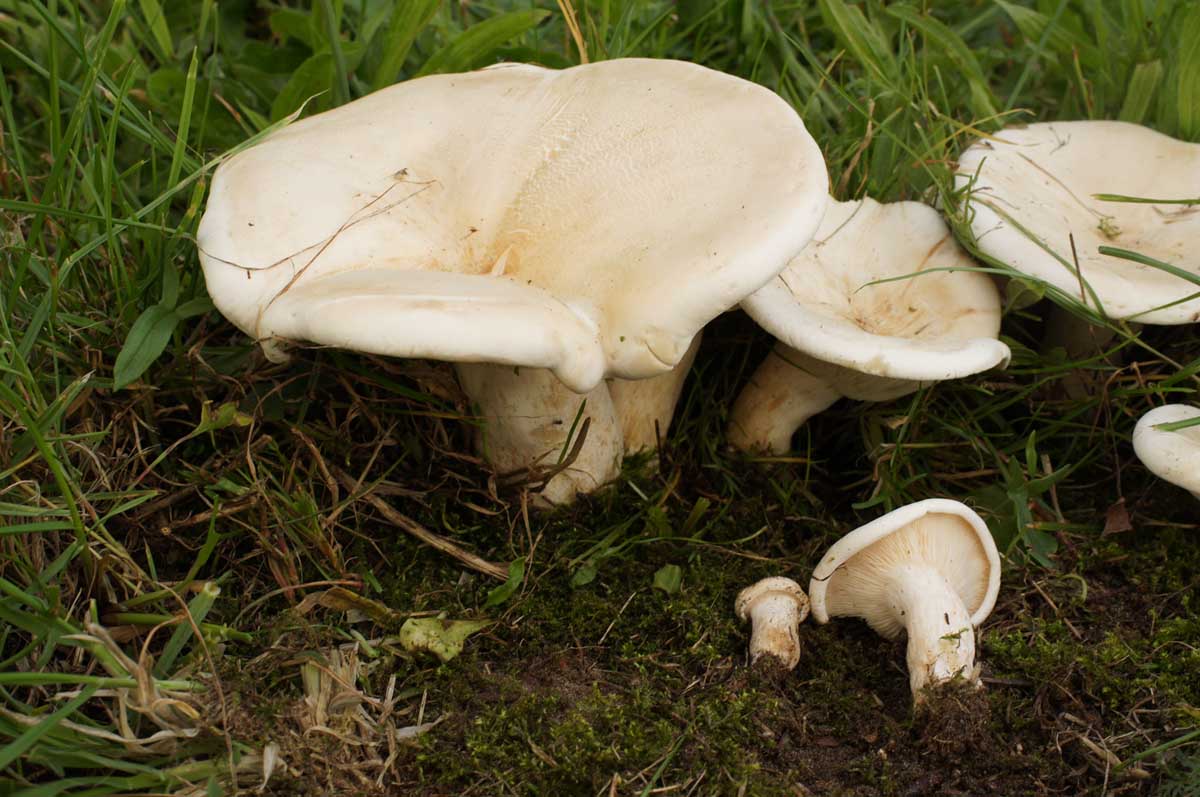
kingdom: Fungi
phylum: Basidiomycota
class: Agaricomycetes
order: Agaricales
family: Tricholomataceae
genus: Aspropaxillus
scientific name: Aspropaxillus giganteus
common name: kæmpe-tragtridderhat
